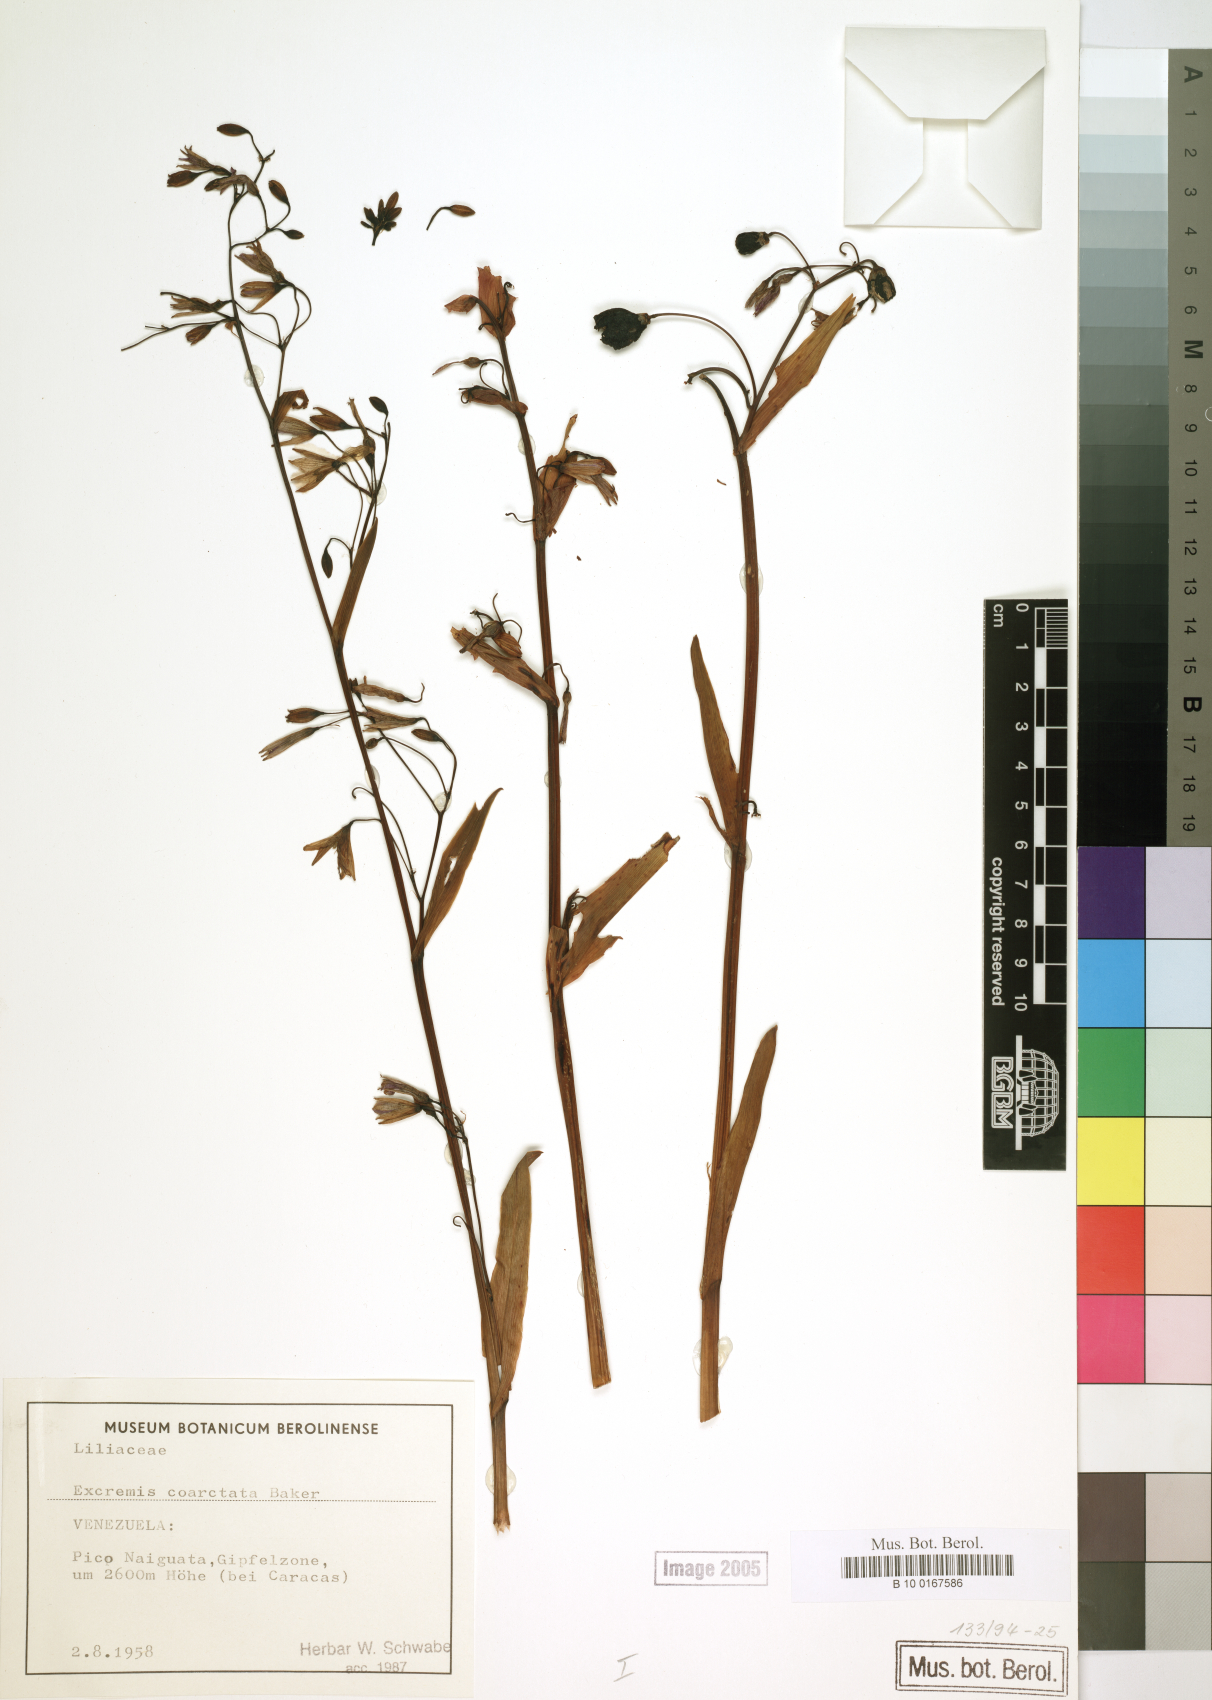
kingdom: Plantae
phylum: Tracheophyta
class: Liliopsida
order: Asparagales
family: Asphodelaceae
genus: Excremis
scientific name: Excremis coarctata
